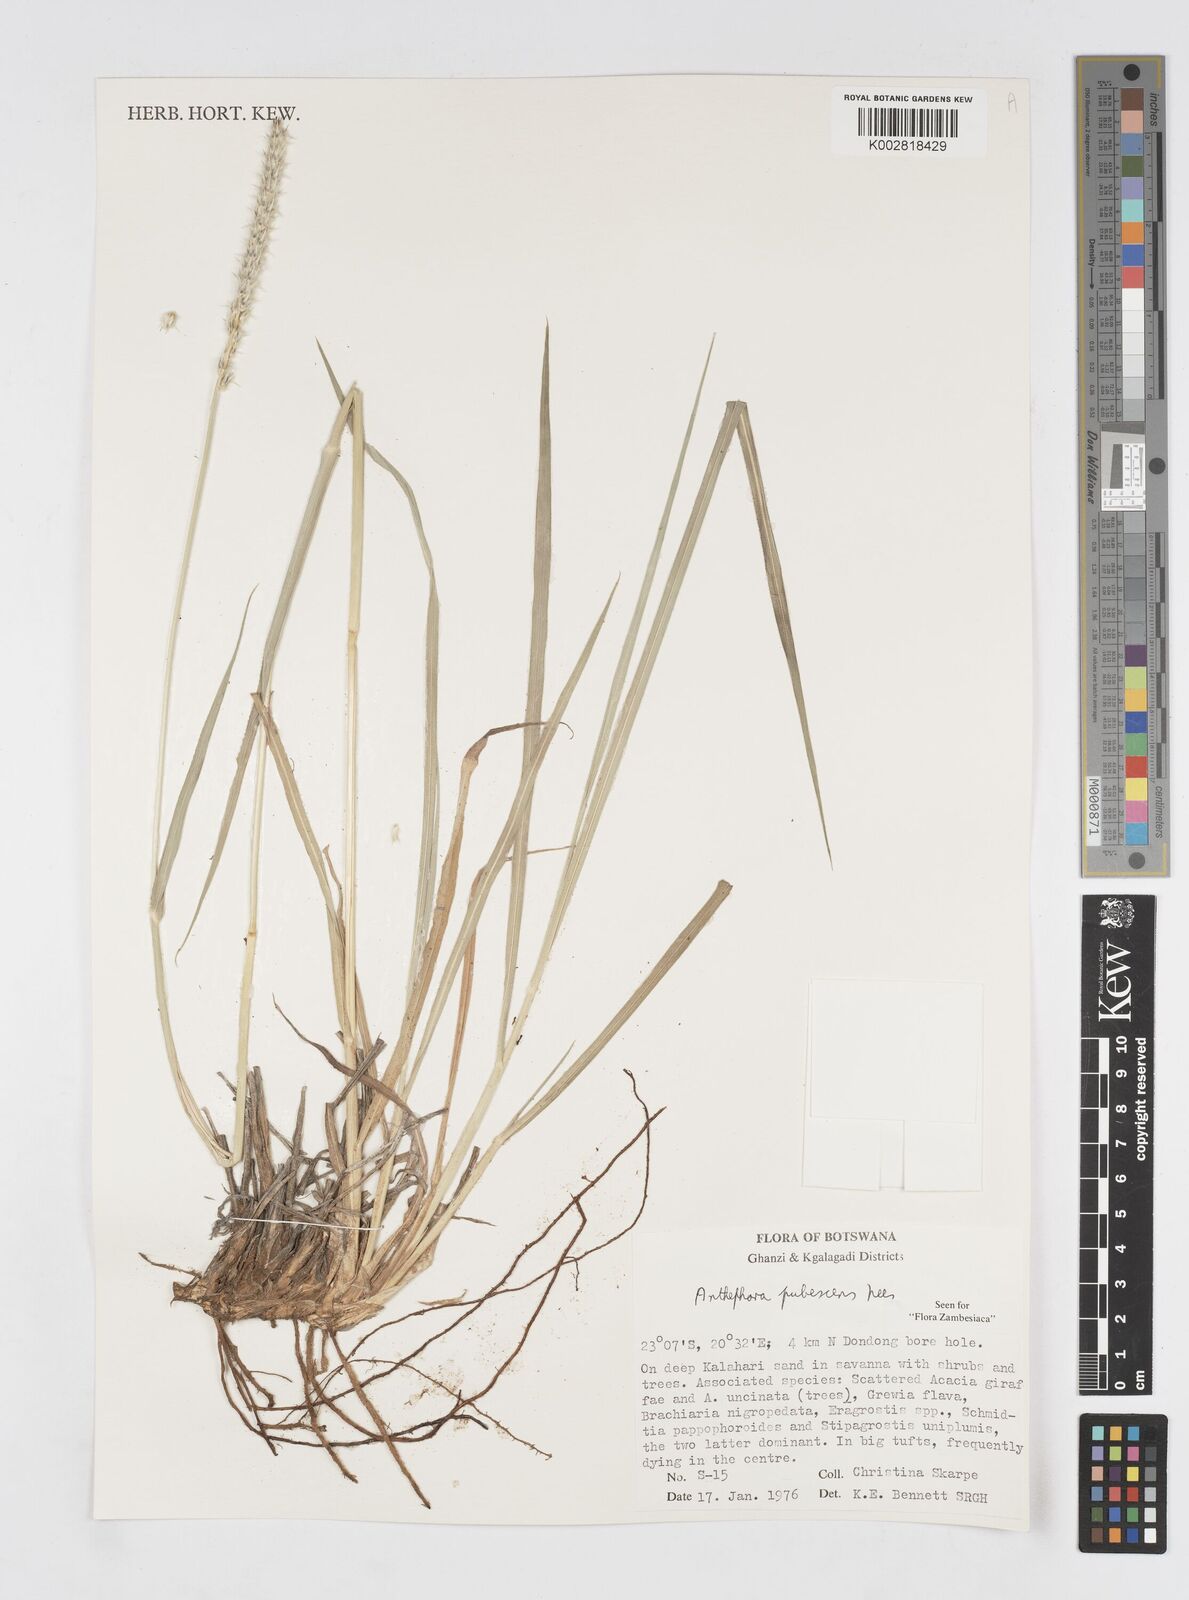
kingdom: Plantae
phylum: Tracheophyta
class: Liliopsida
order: Poales
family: Poaceae
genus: Anthephora
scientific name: Anthephora pubescens
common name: Wool grass
